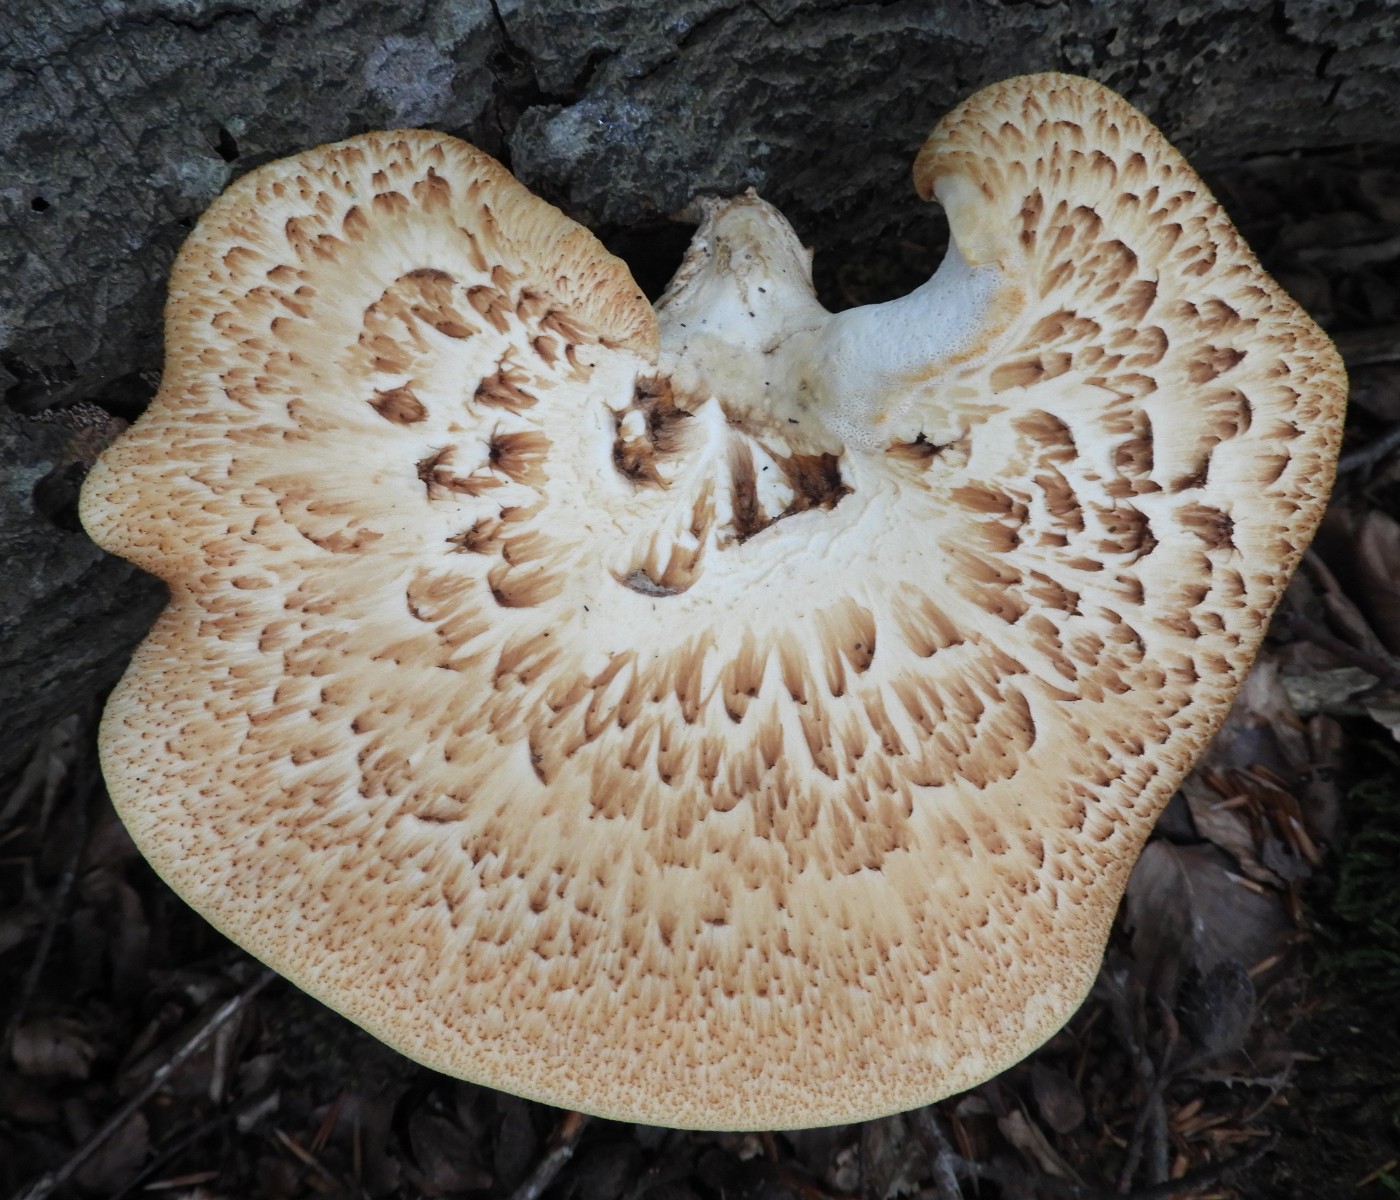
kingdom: Fungi
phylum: Basidiomycota
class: Agaricomycetes
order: Polyporales
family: Polyporaceae
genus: Cerioporus
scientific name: Cerioporus squamosus
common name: skællet stilkporesvamp
